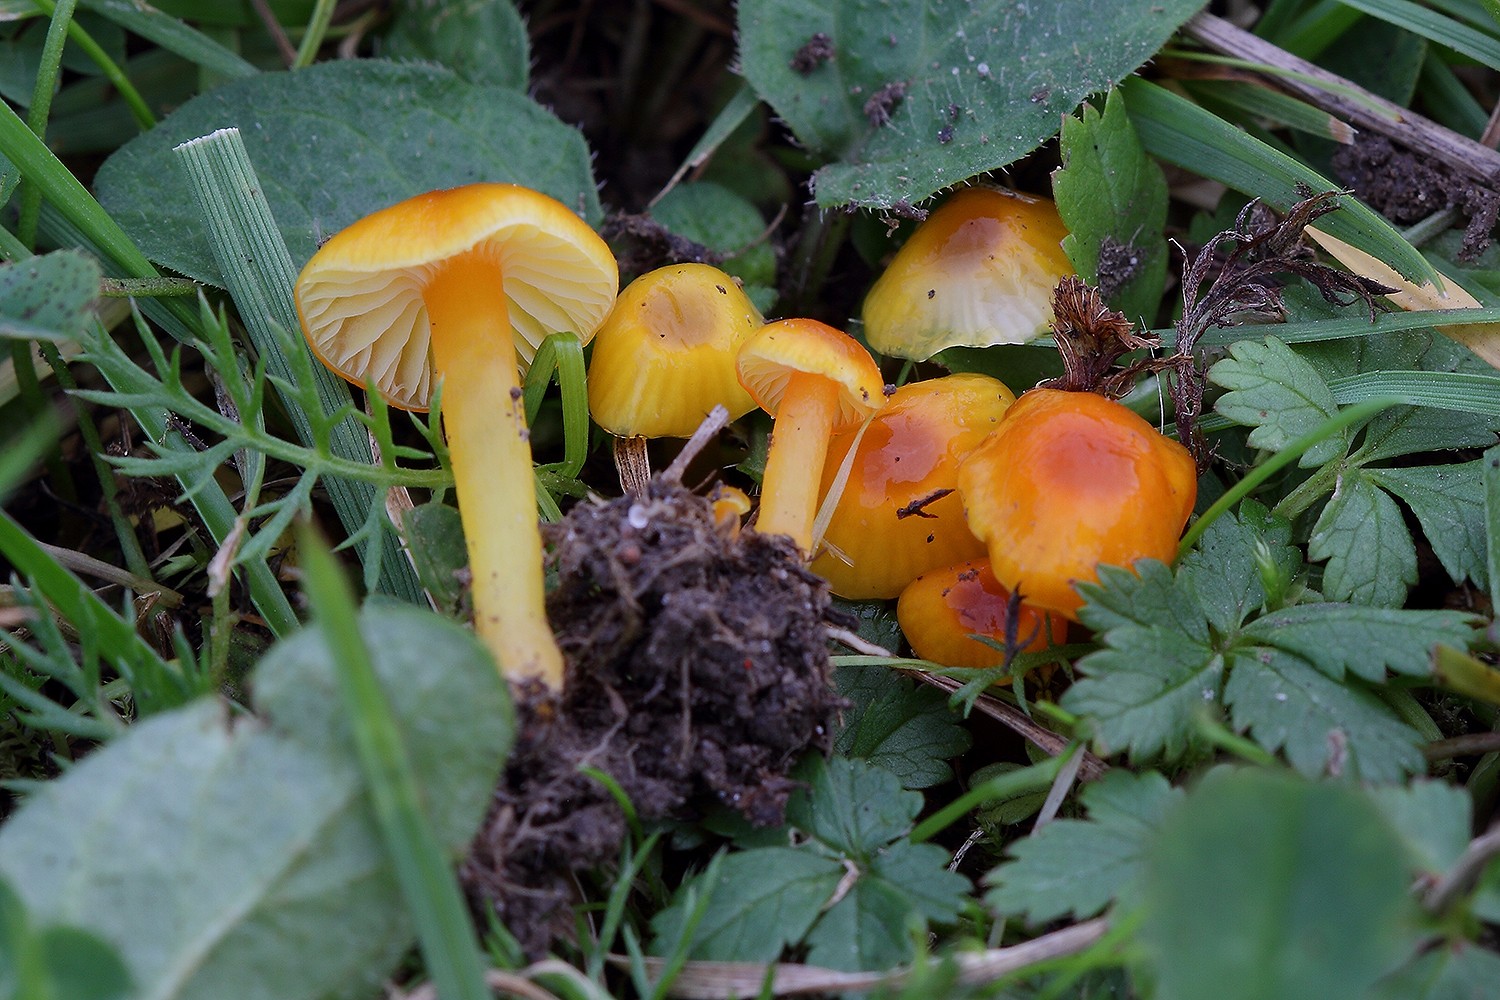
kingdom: Fungi
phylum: Basidiomycota
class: Agaricomycetes
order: Agaricales
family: Hygrophoraceae
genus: Hygrocybe
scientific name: Hygrocybe insipida
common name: liden vokshat
